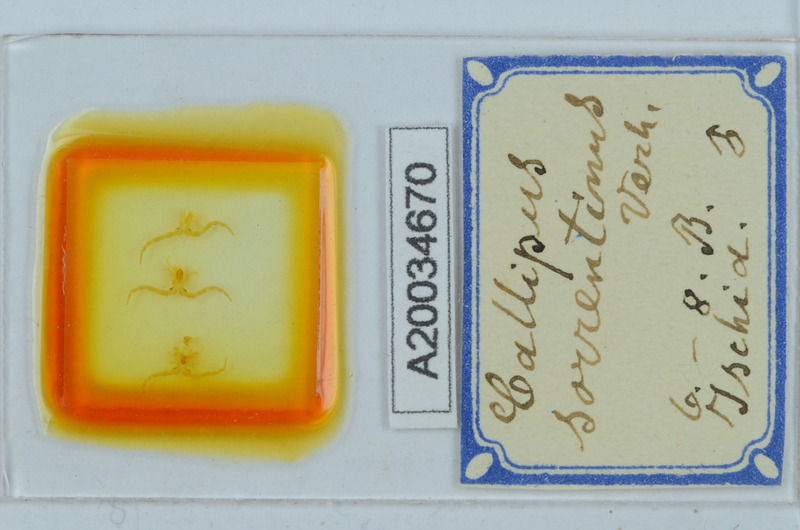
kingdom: Animalia
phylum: Arthropoda
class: Diplopoda
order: Callipodida
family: Callipodidae
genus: Callipus
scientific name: Callipus foetidissimus
